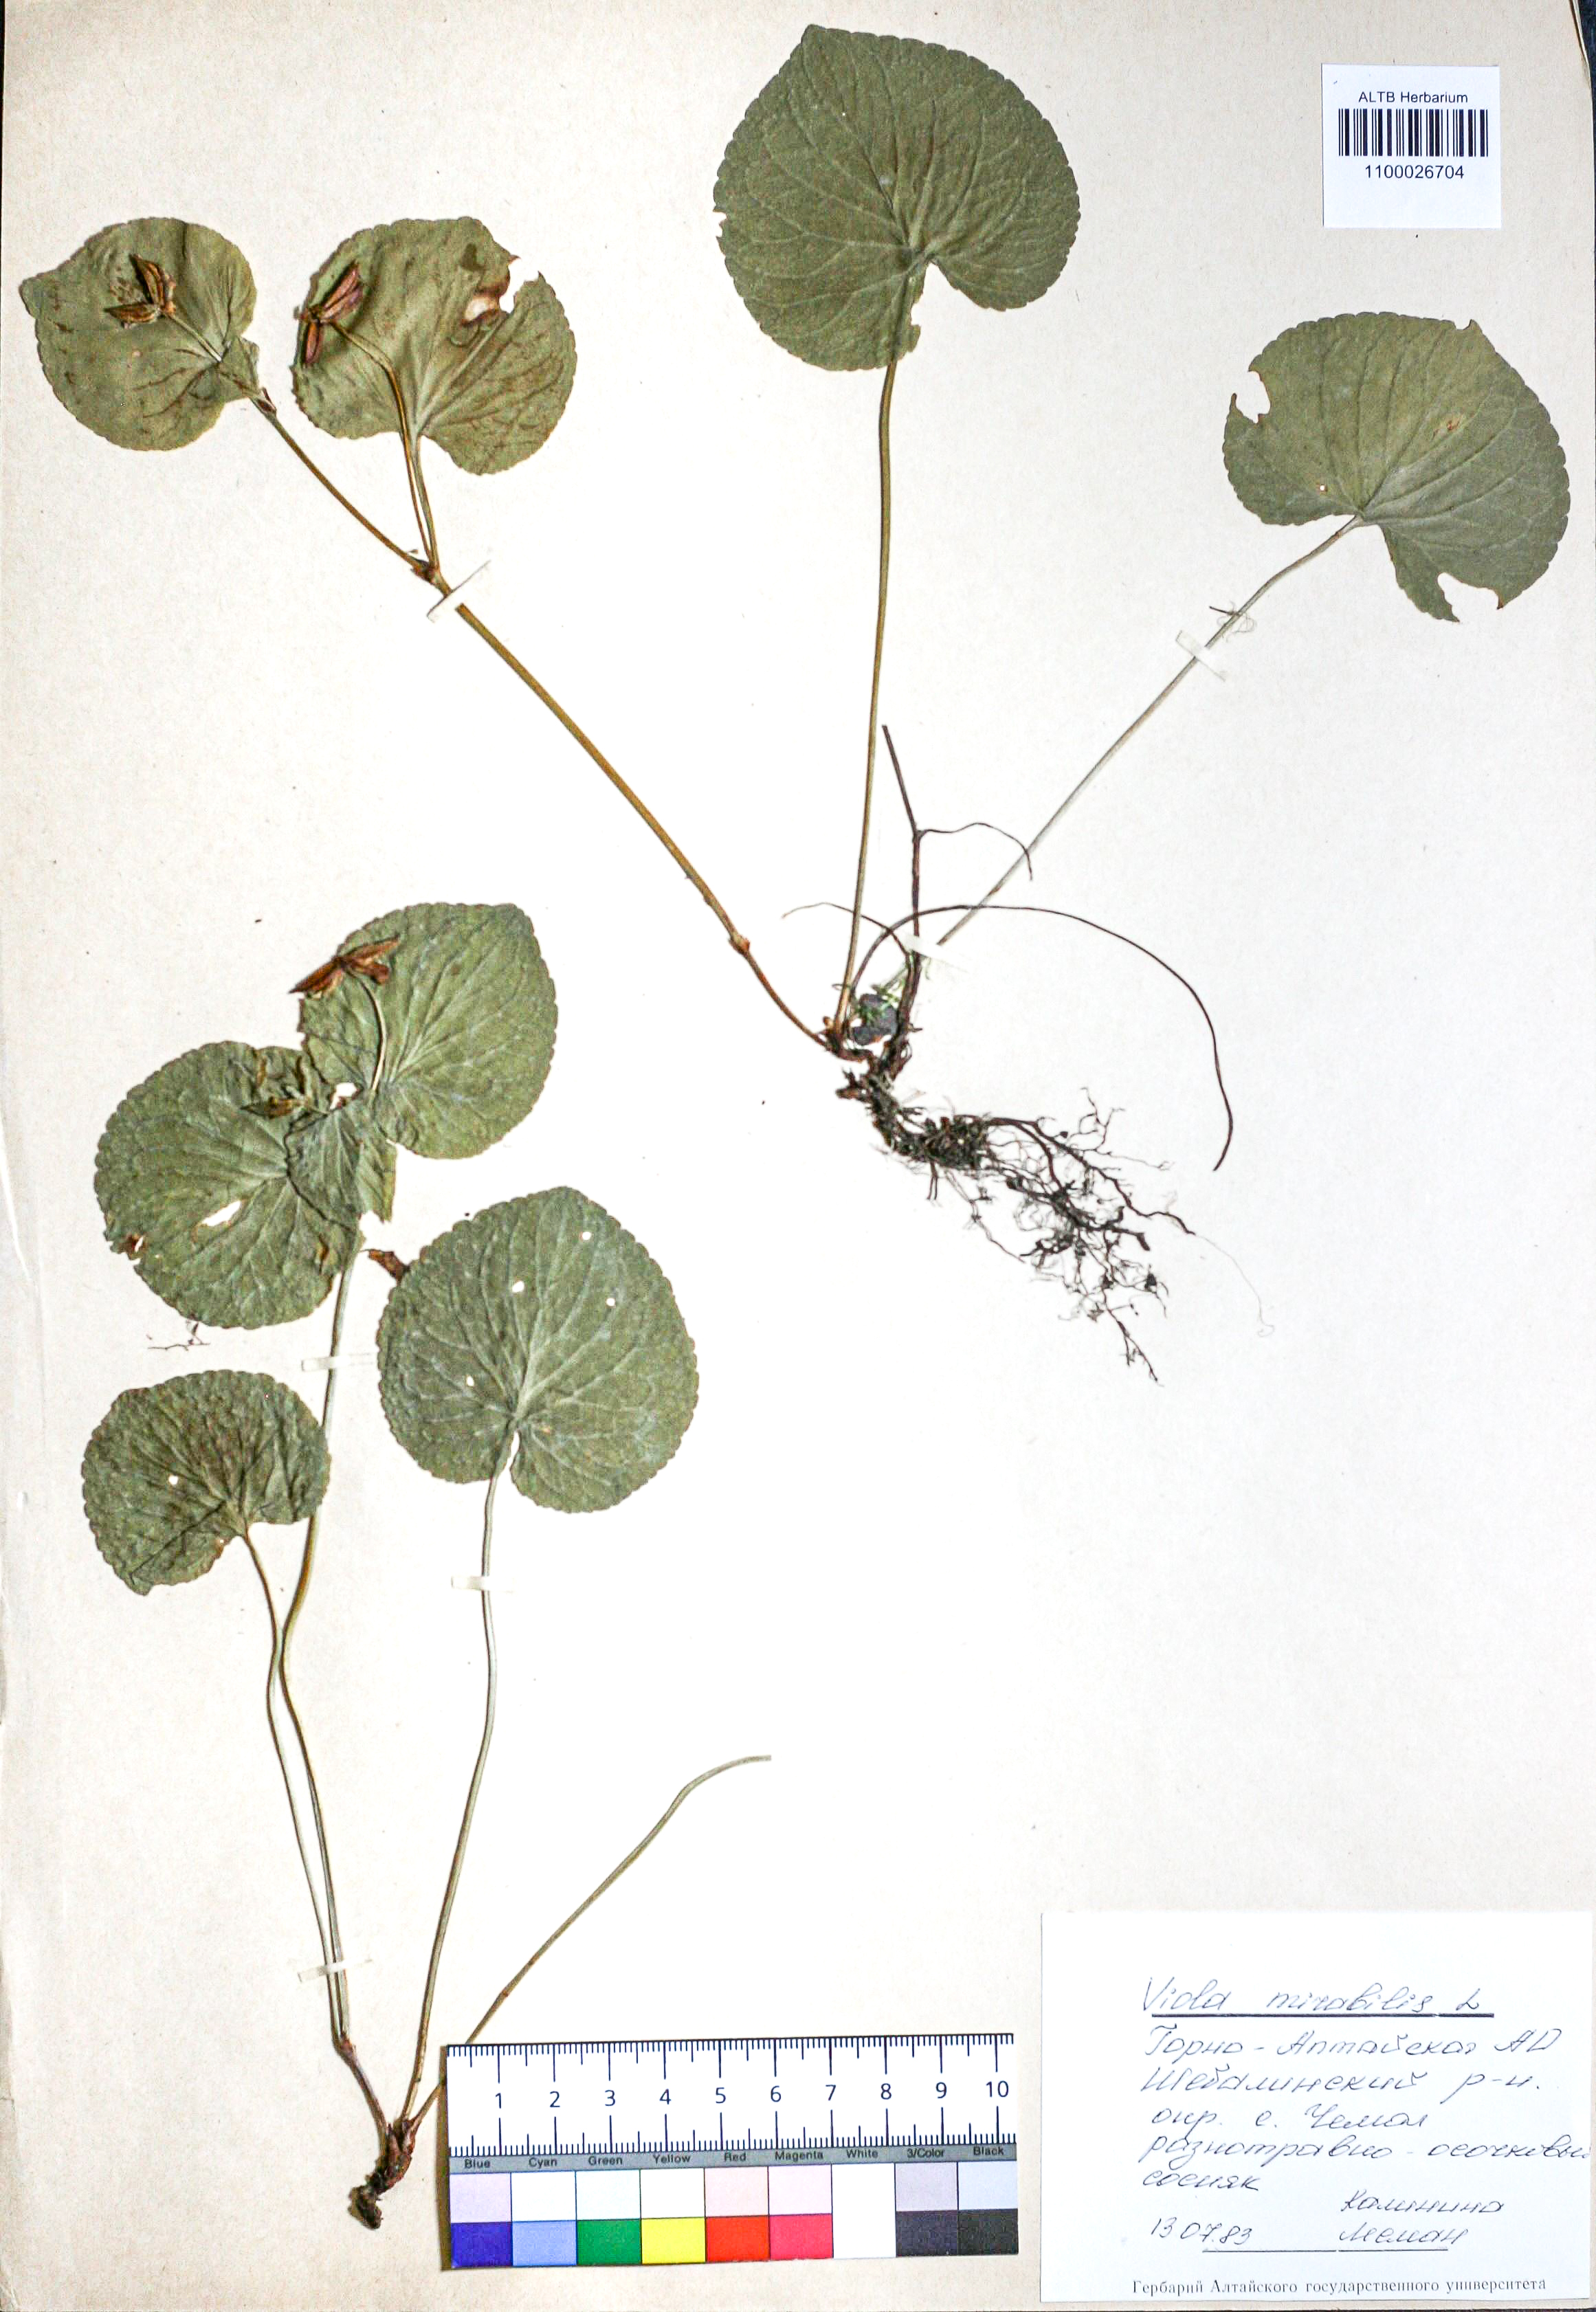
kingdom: Plantae
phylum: Tracheophyta
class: Magnoliopsida
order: Malpighiales
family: Violaceae
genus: Viola
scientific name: Viola mirabilis
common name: Wonder violet
